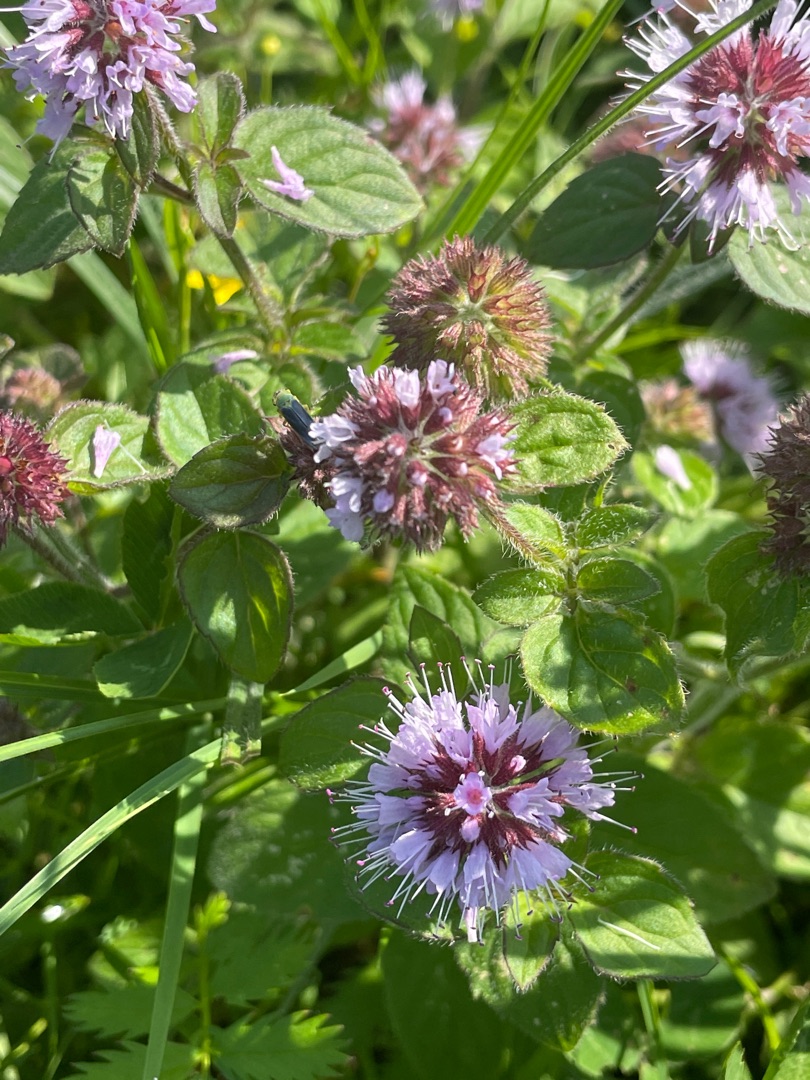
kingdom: Plantae
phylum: Tracheophyta
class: Magnoliopsida
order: Lamiales
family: Lamiaceae
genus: Mentha
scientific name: Mentha aquatica
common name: Vand-mynte
